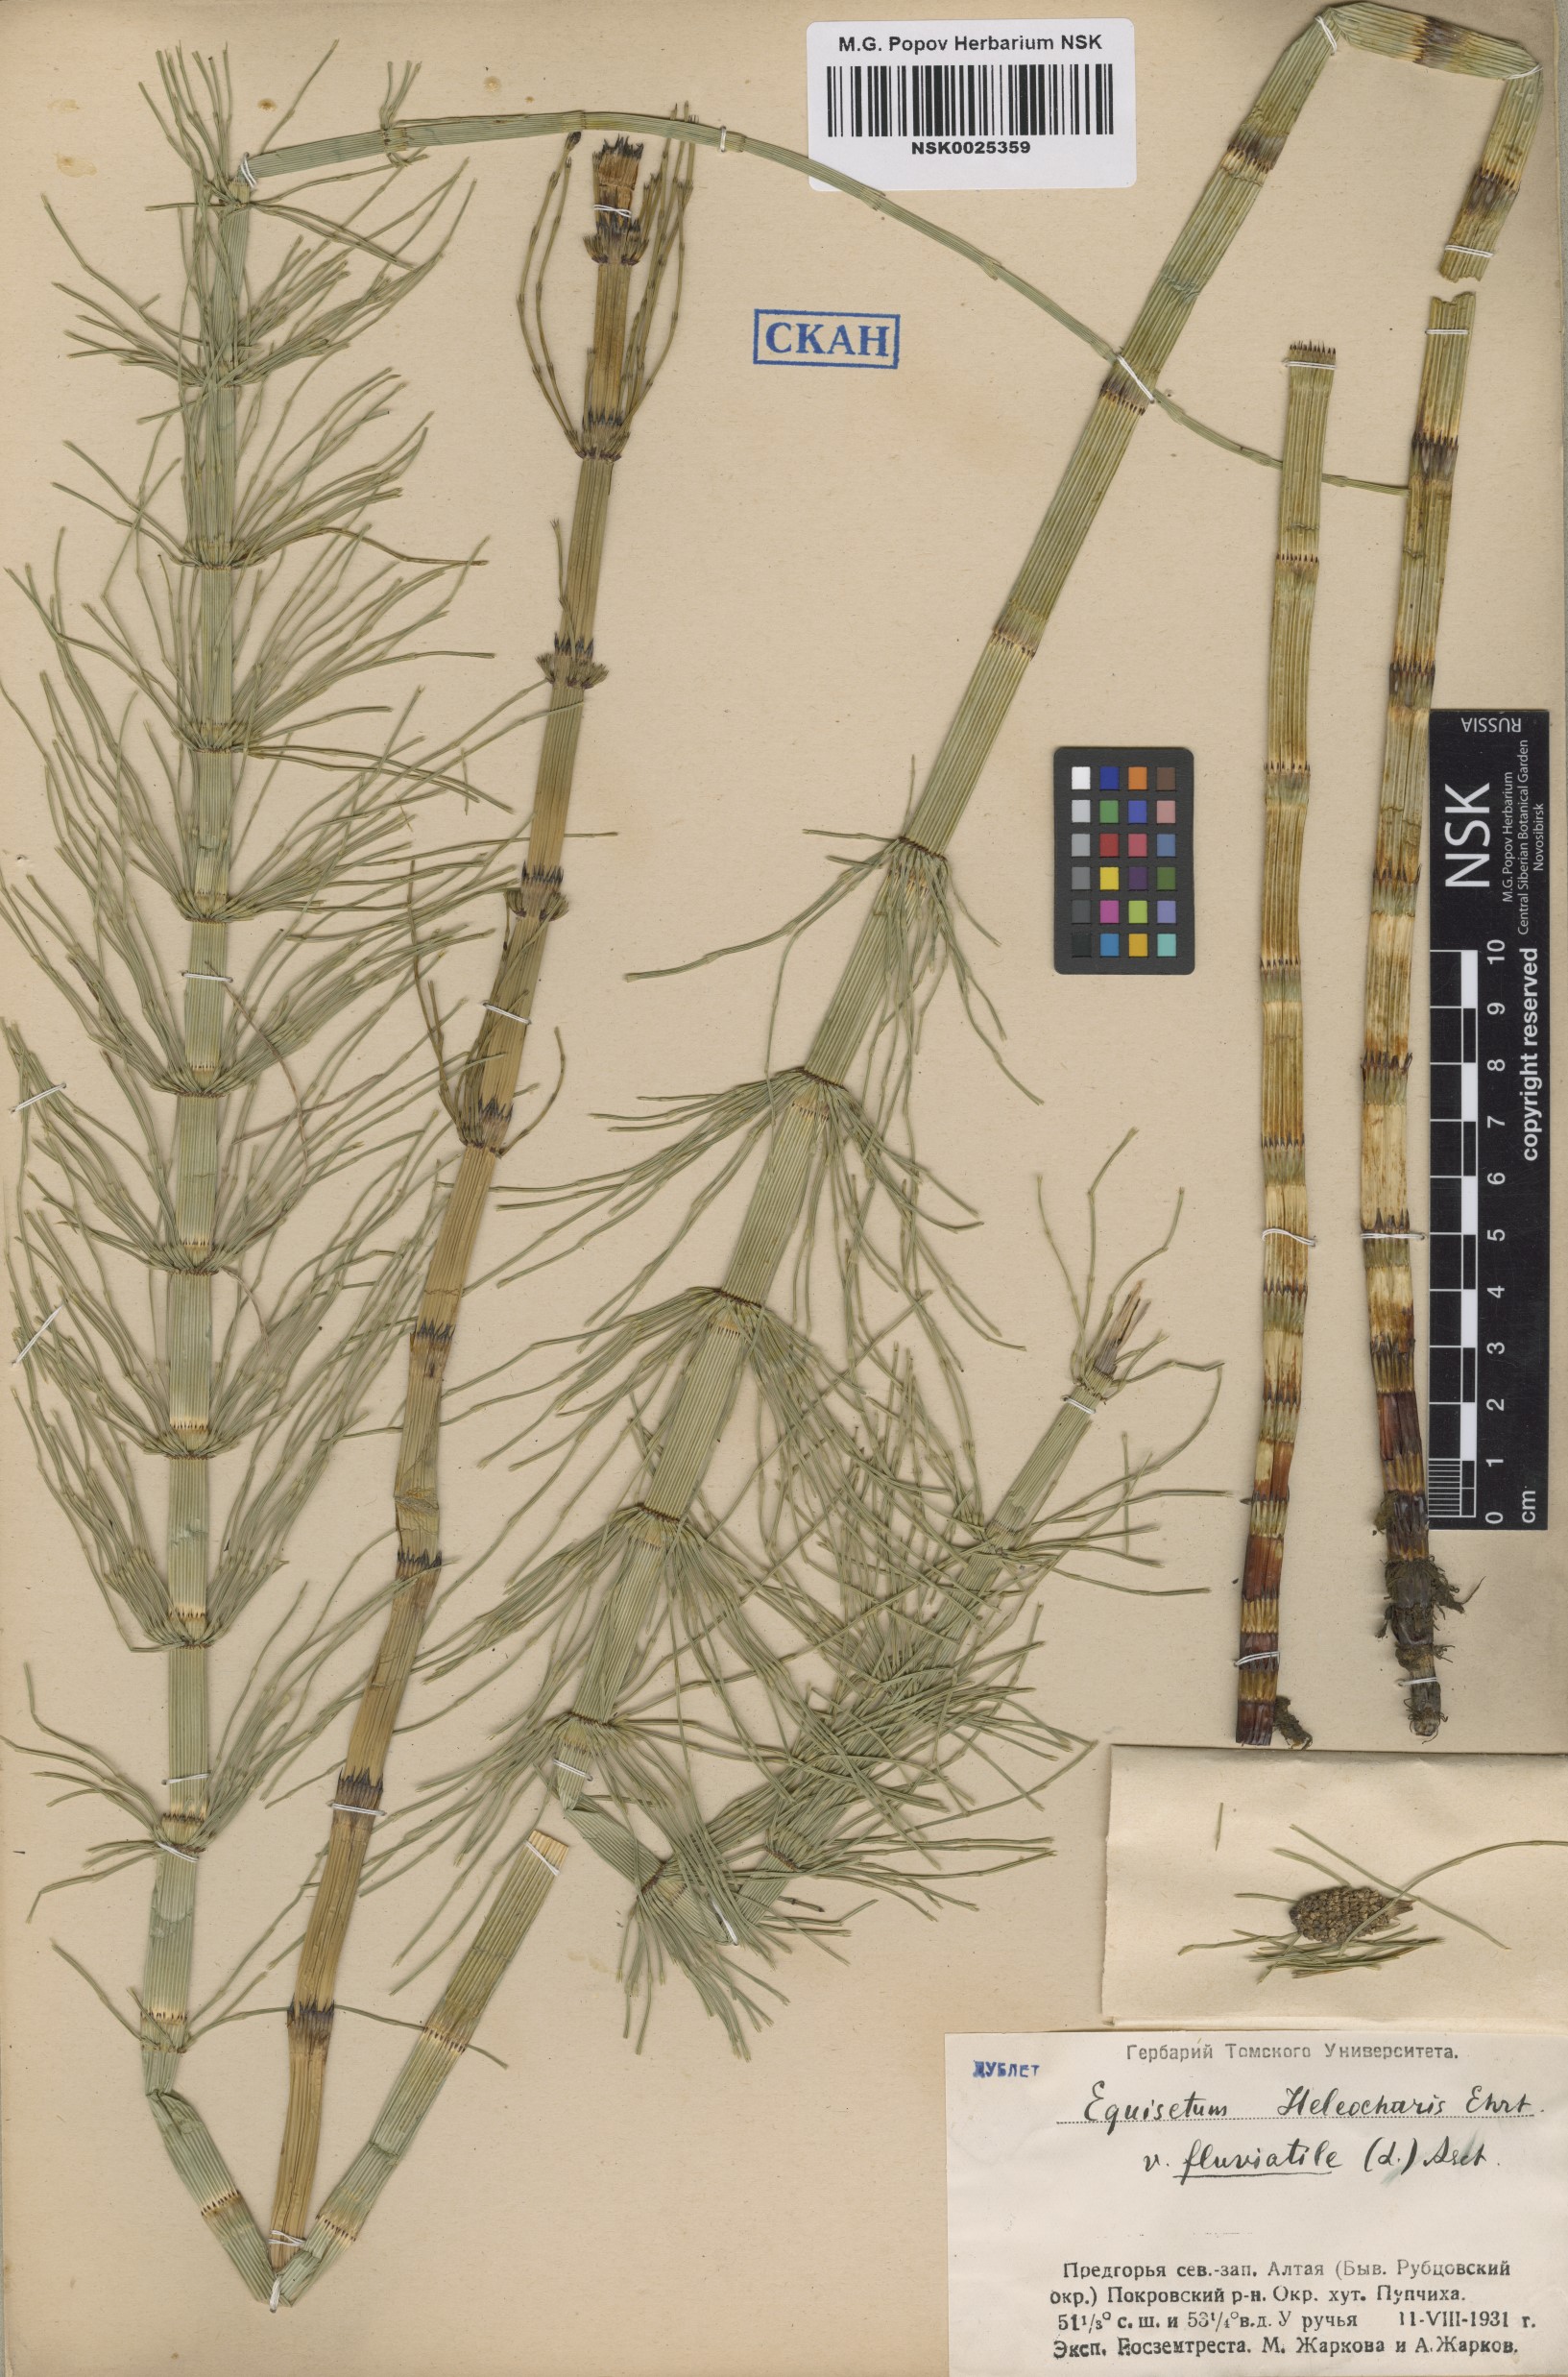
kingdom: Plantae
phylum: Tracheophyta
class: Polypodiopsida
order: Equisetales
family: Equisetaceae
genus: Equisetum
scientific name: Equisetum fluviatile
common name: Water horsetail
